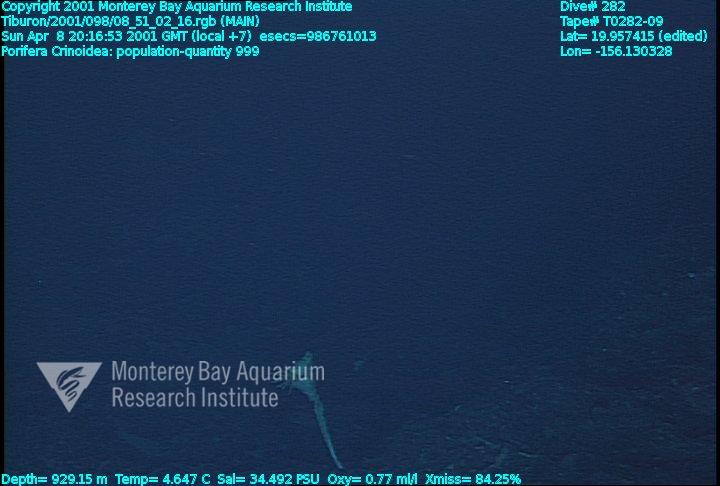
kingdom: Animalia
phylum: Porifera
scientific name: Porifera
